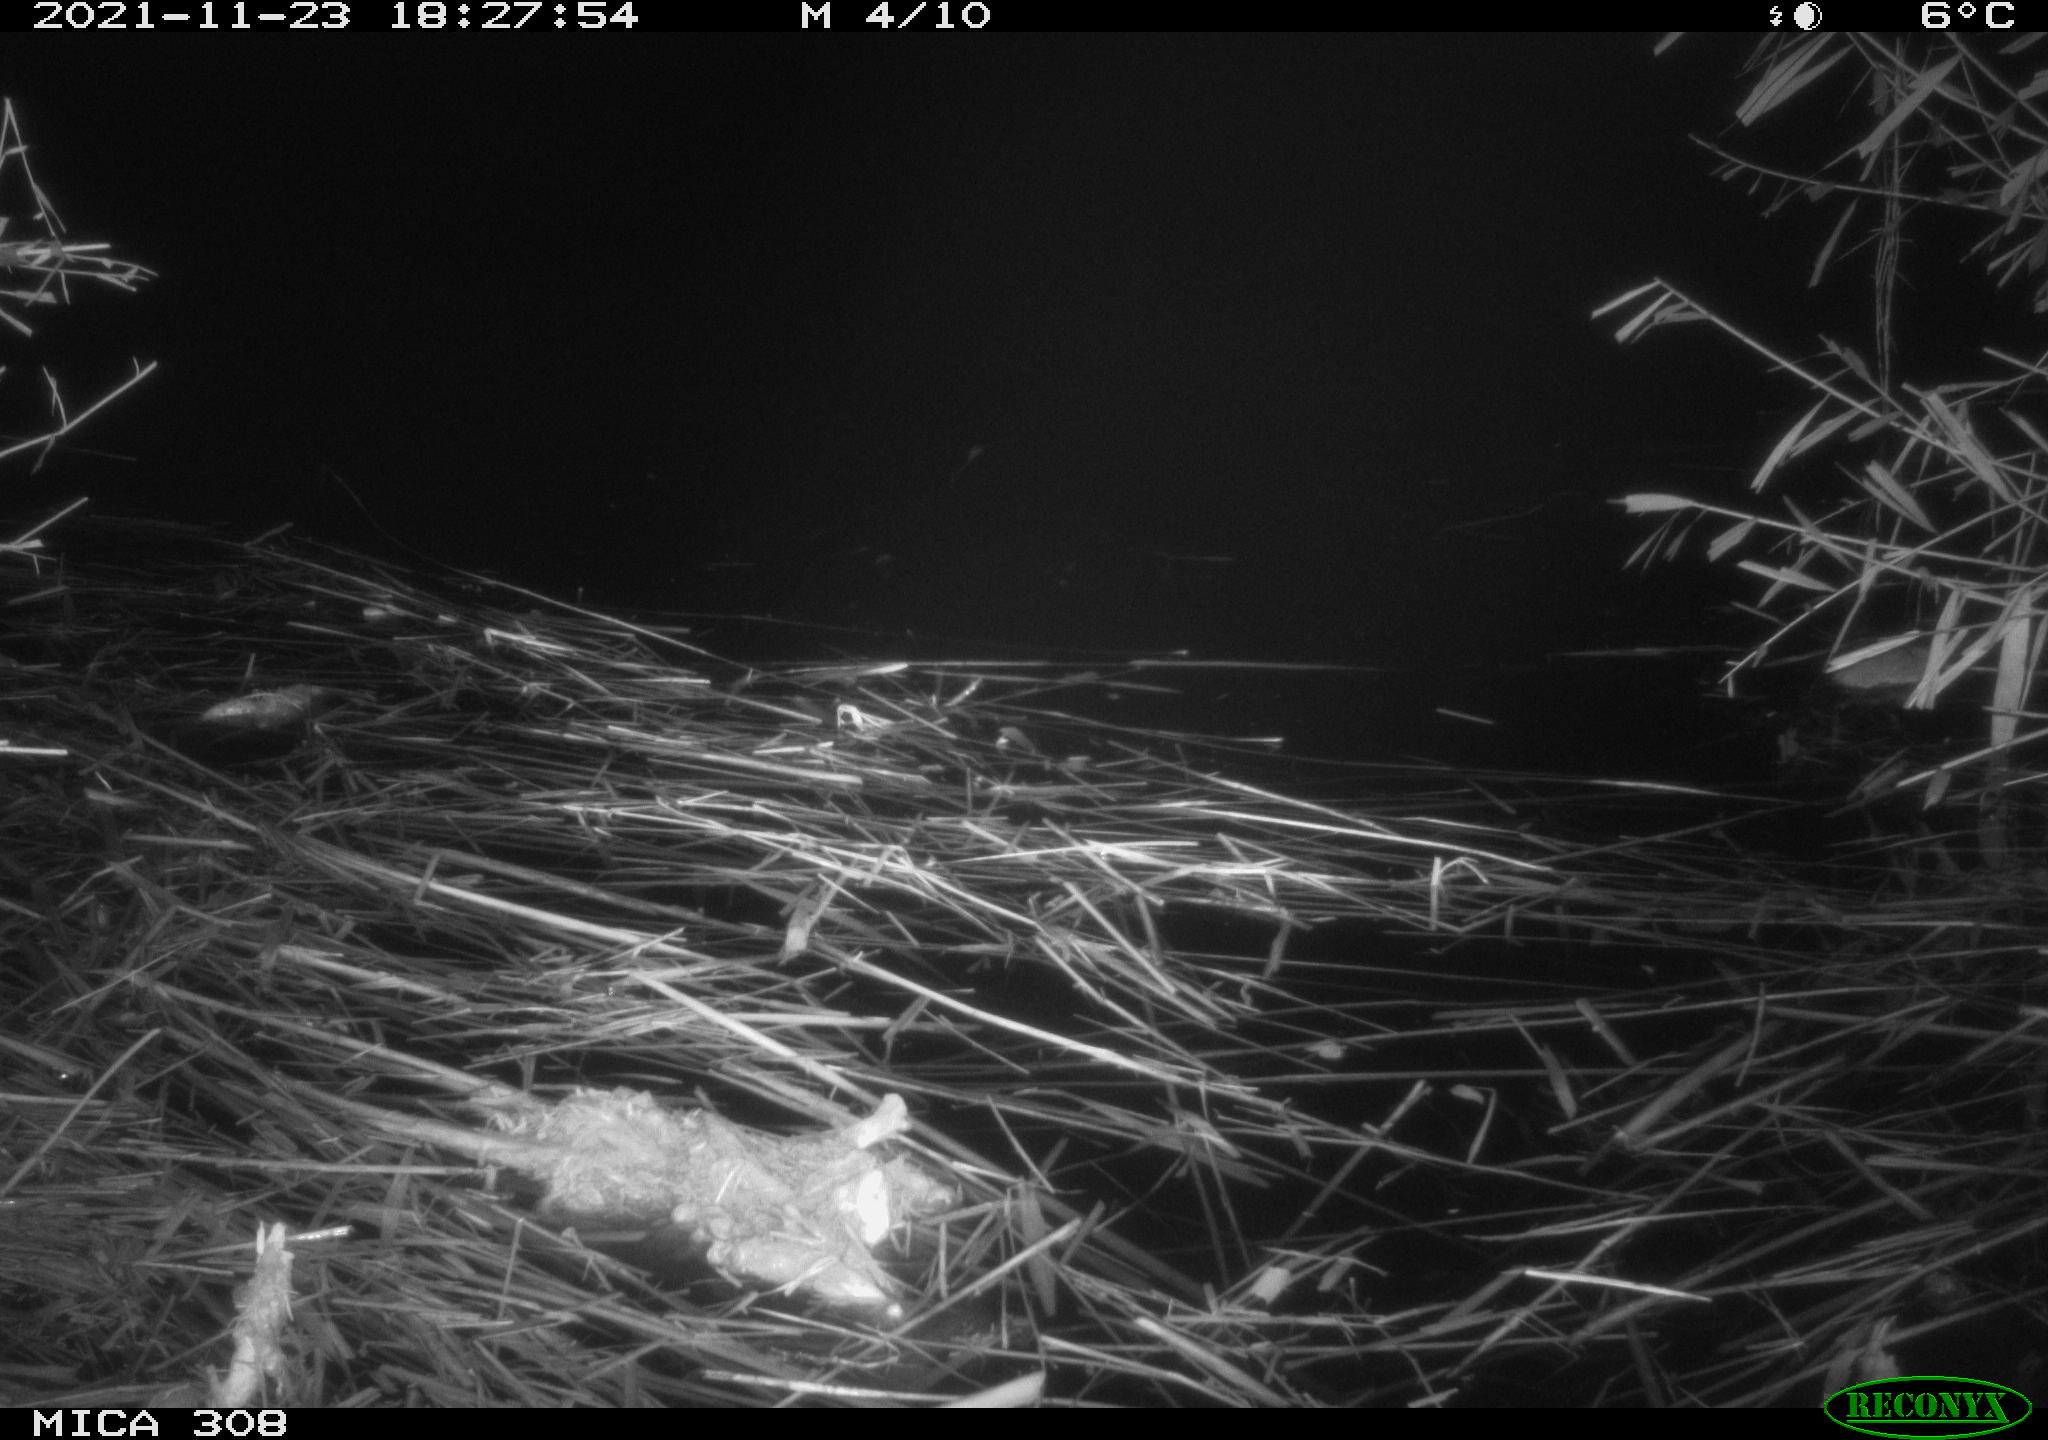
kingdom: Animalia
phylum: Chordata
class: Mammalia
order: Rodentia
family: Muridae
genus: Rattus
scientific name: Rattus norvegicus
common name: Brown rat
